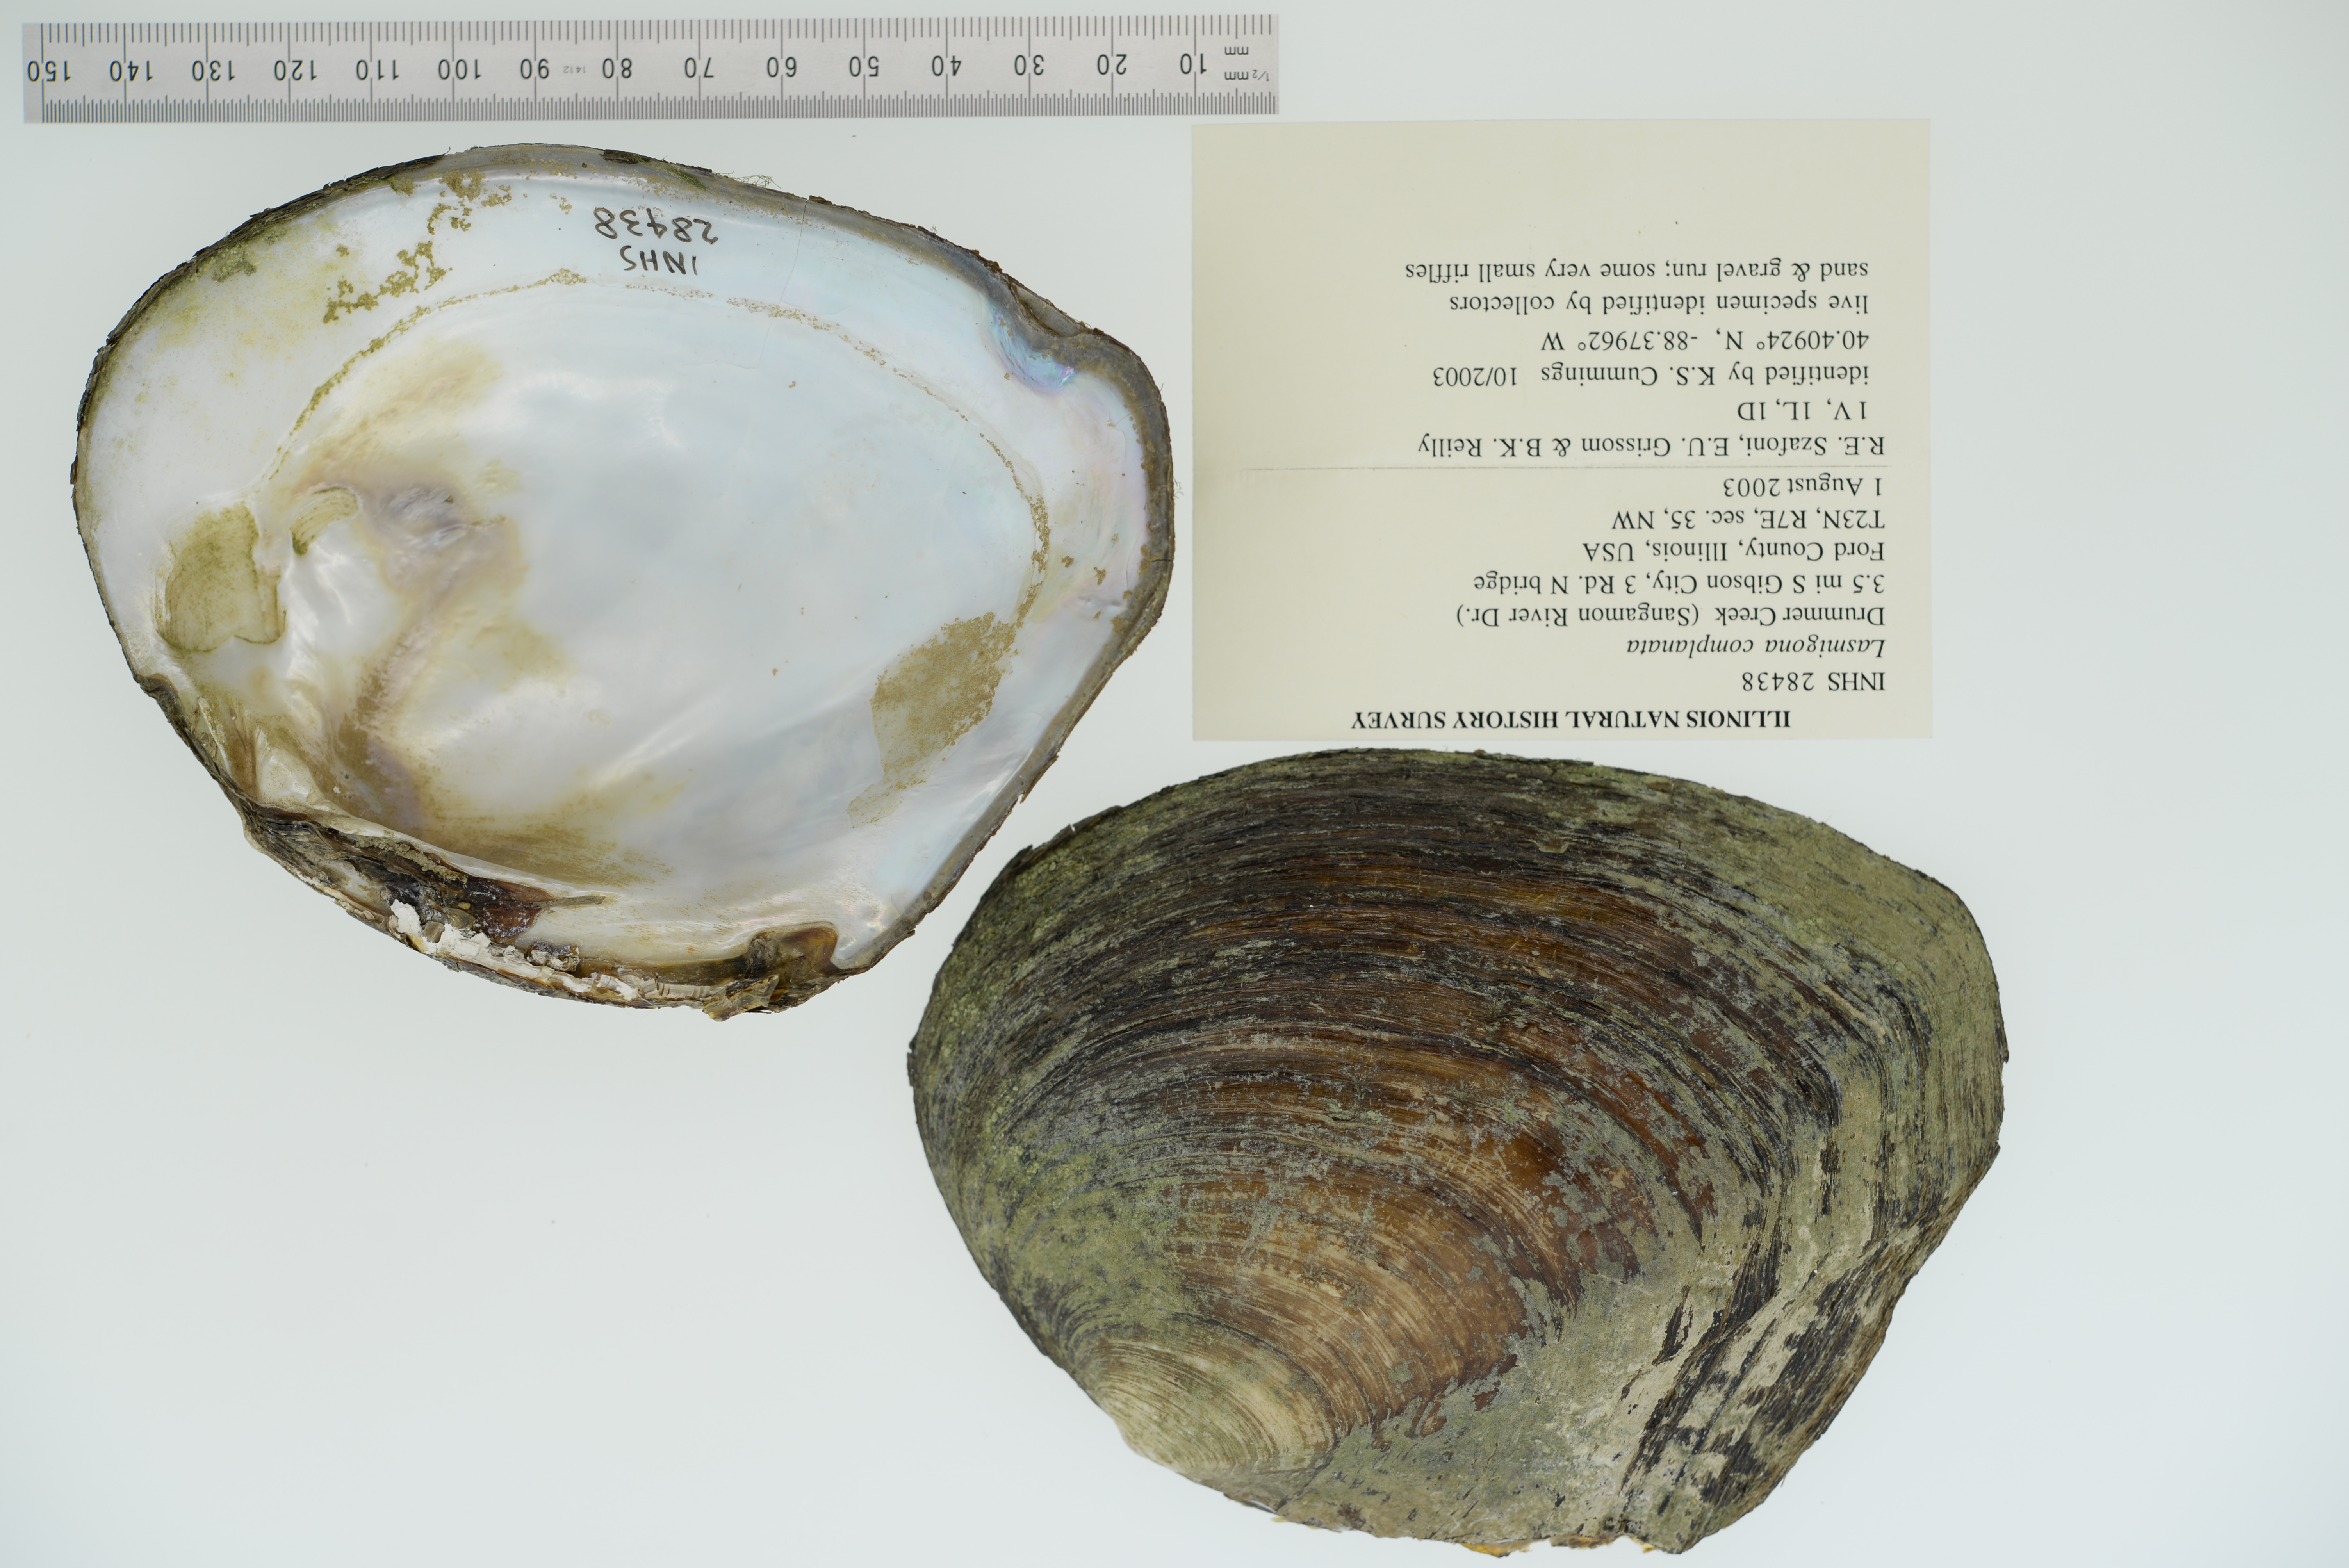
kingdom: Animalia
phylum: Mollusca
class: Bivalvia
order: Unionida
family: Unionidae
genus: Lasmigona
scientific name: Lasmigona complanata
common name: White heelsplitter
